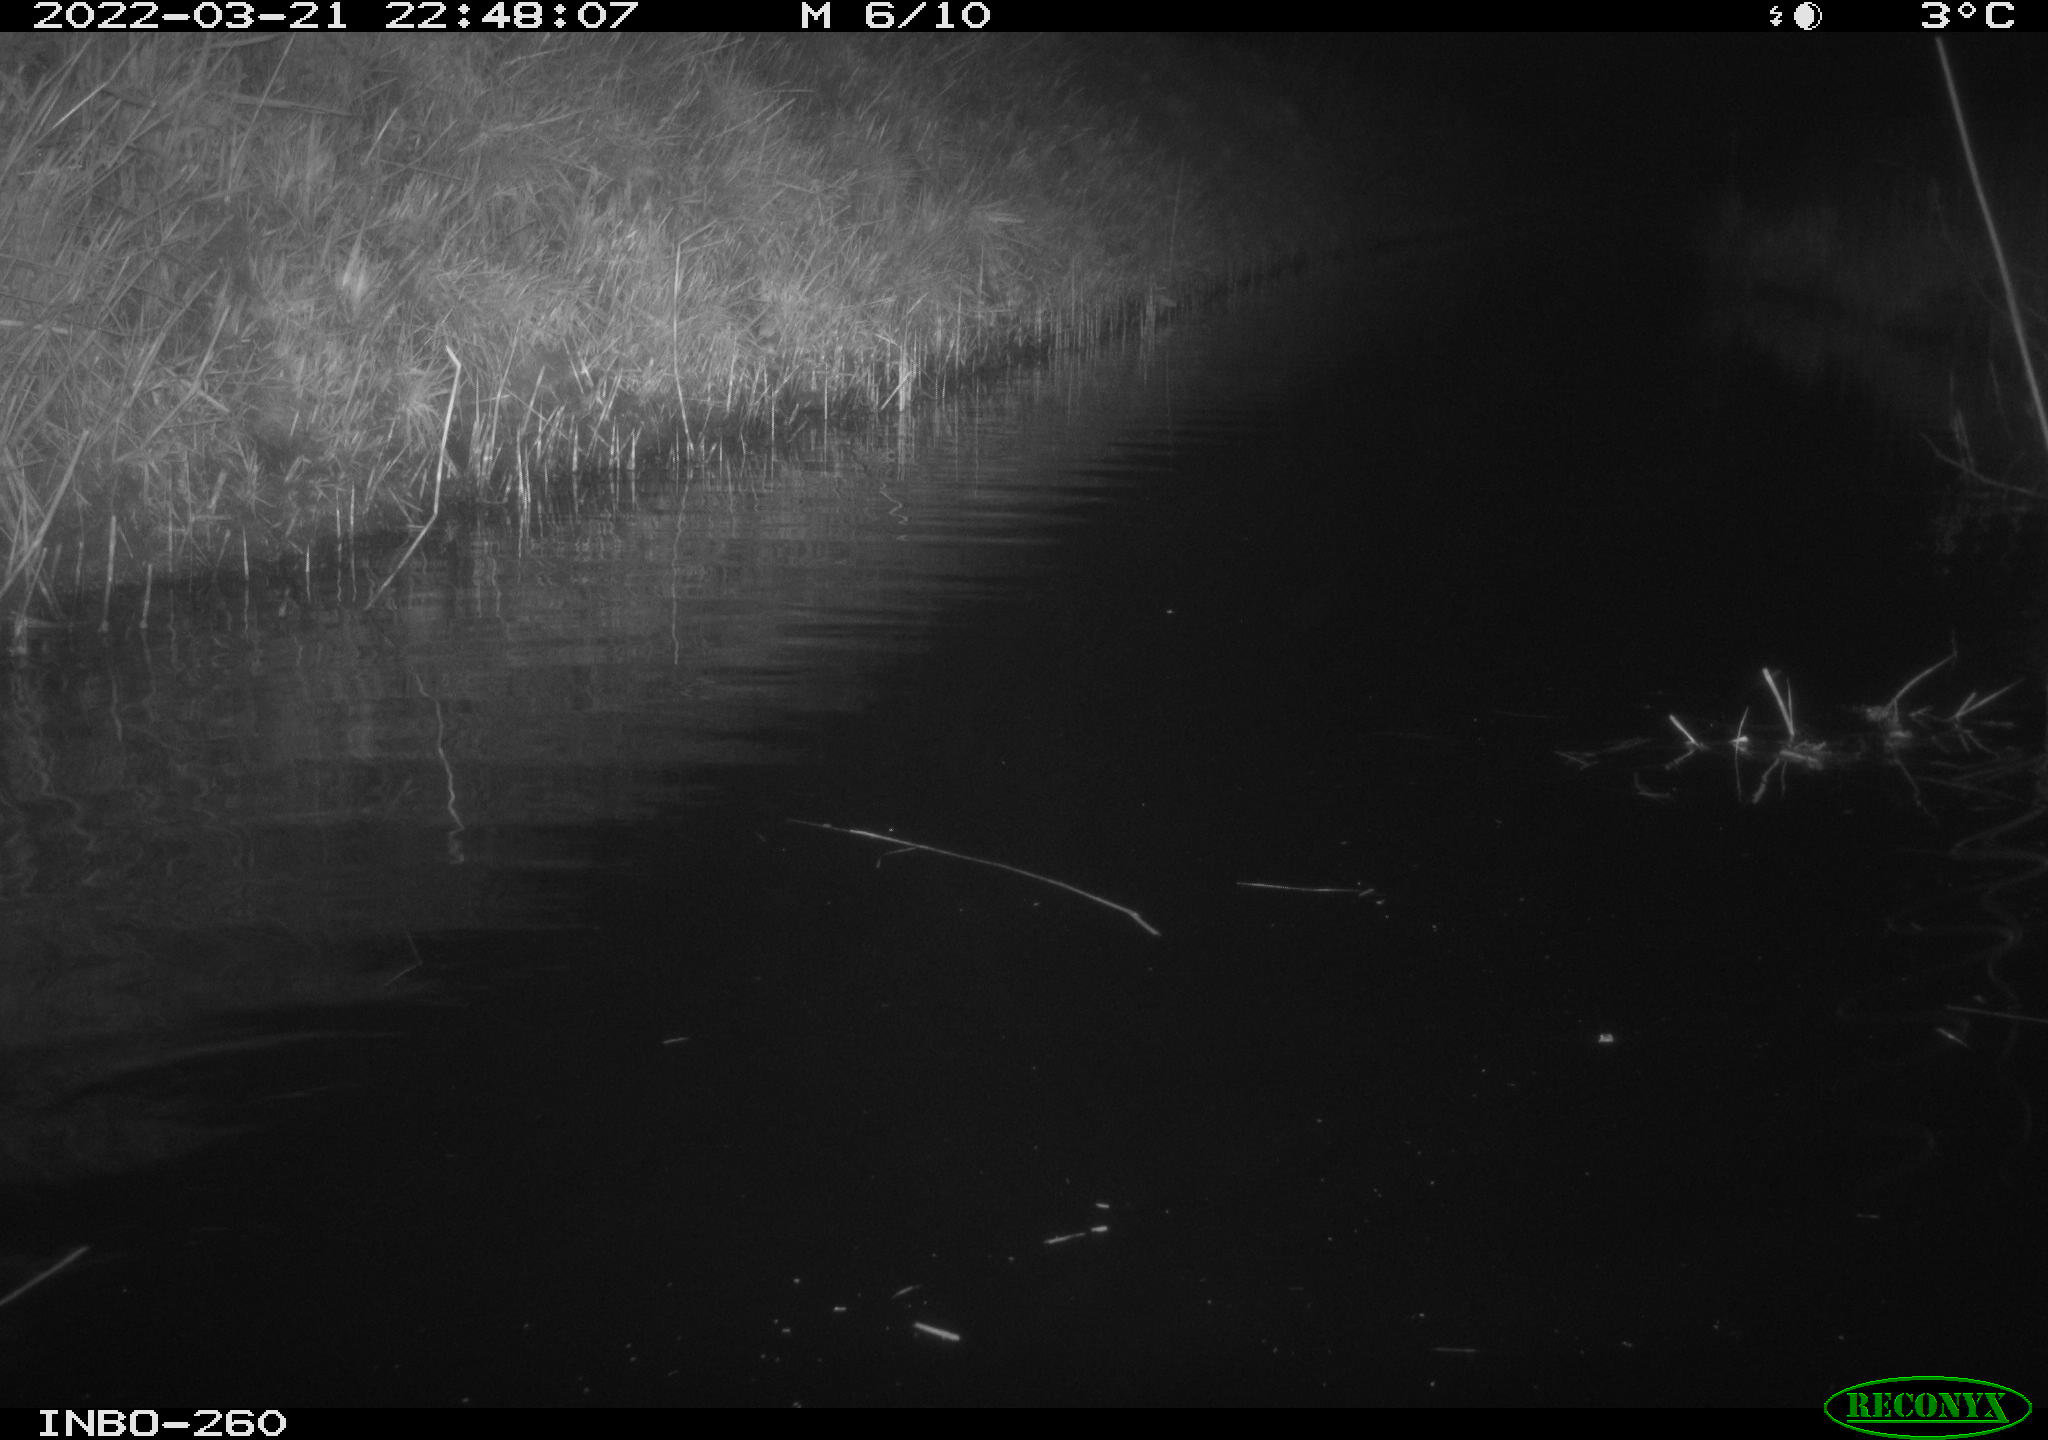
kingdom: Animalia
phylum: Chordata
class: Mammalia
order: Rodentia
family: Cricetidae
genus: Ondatra
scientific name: Ondatra zibethicus
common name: Muskrat
